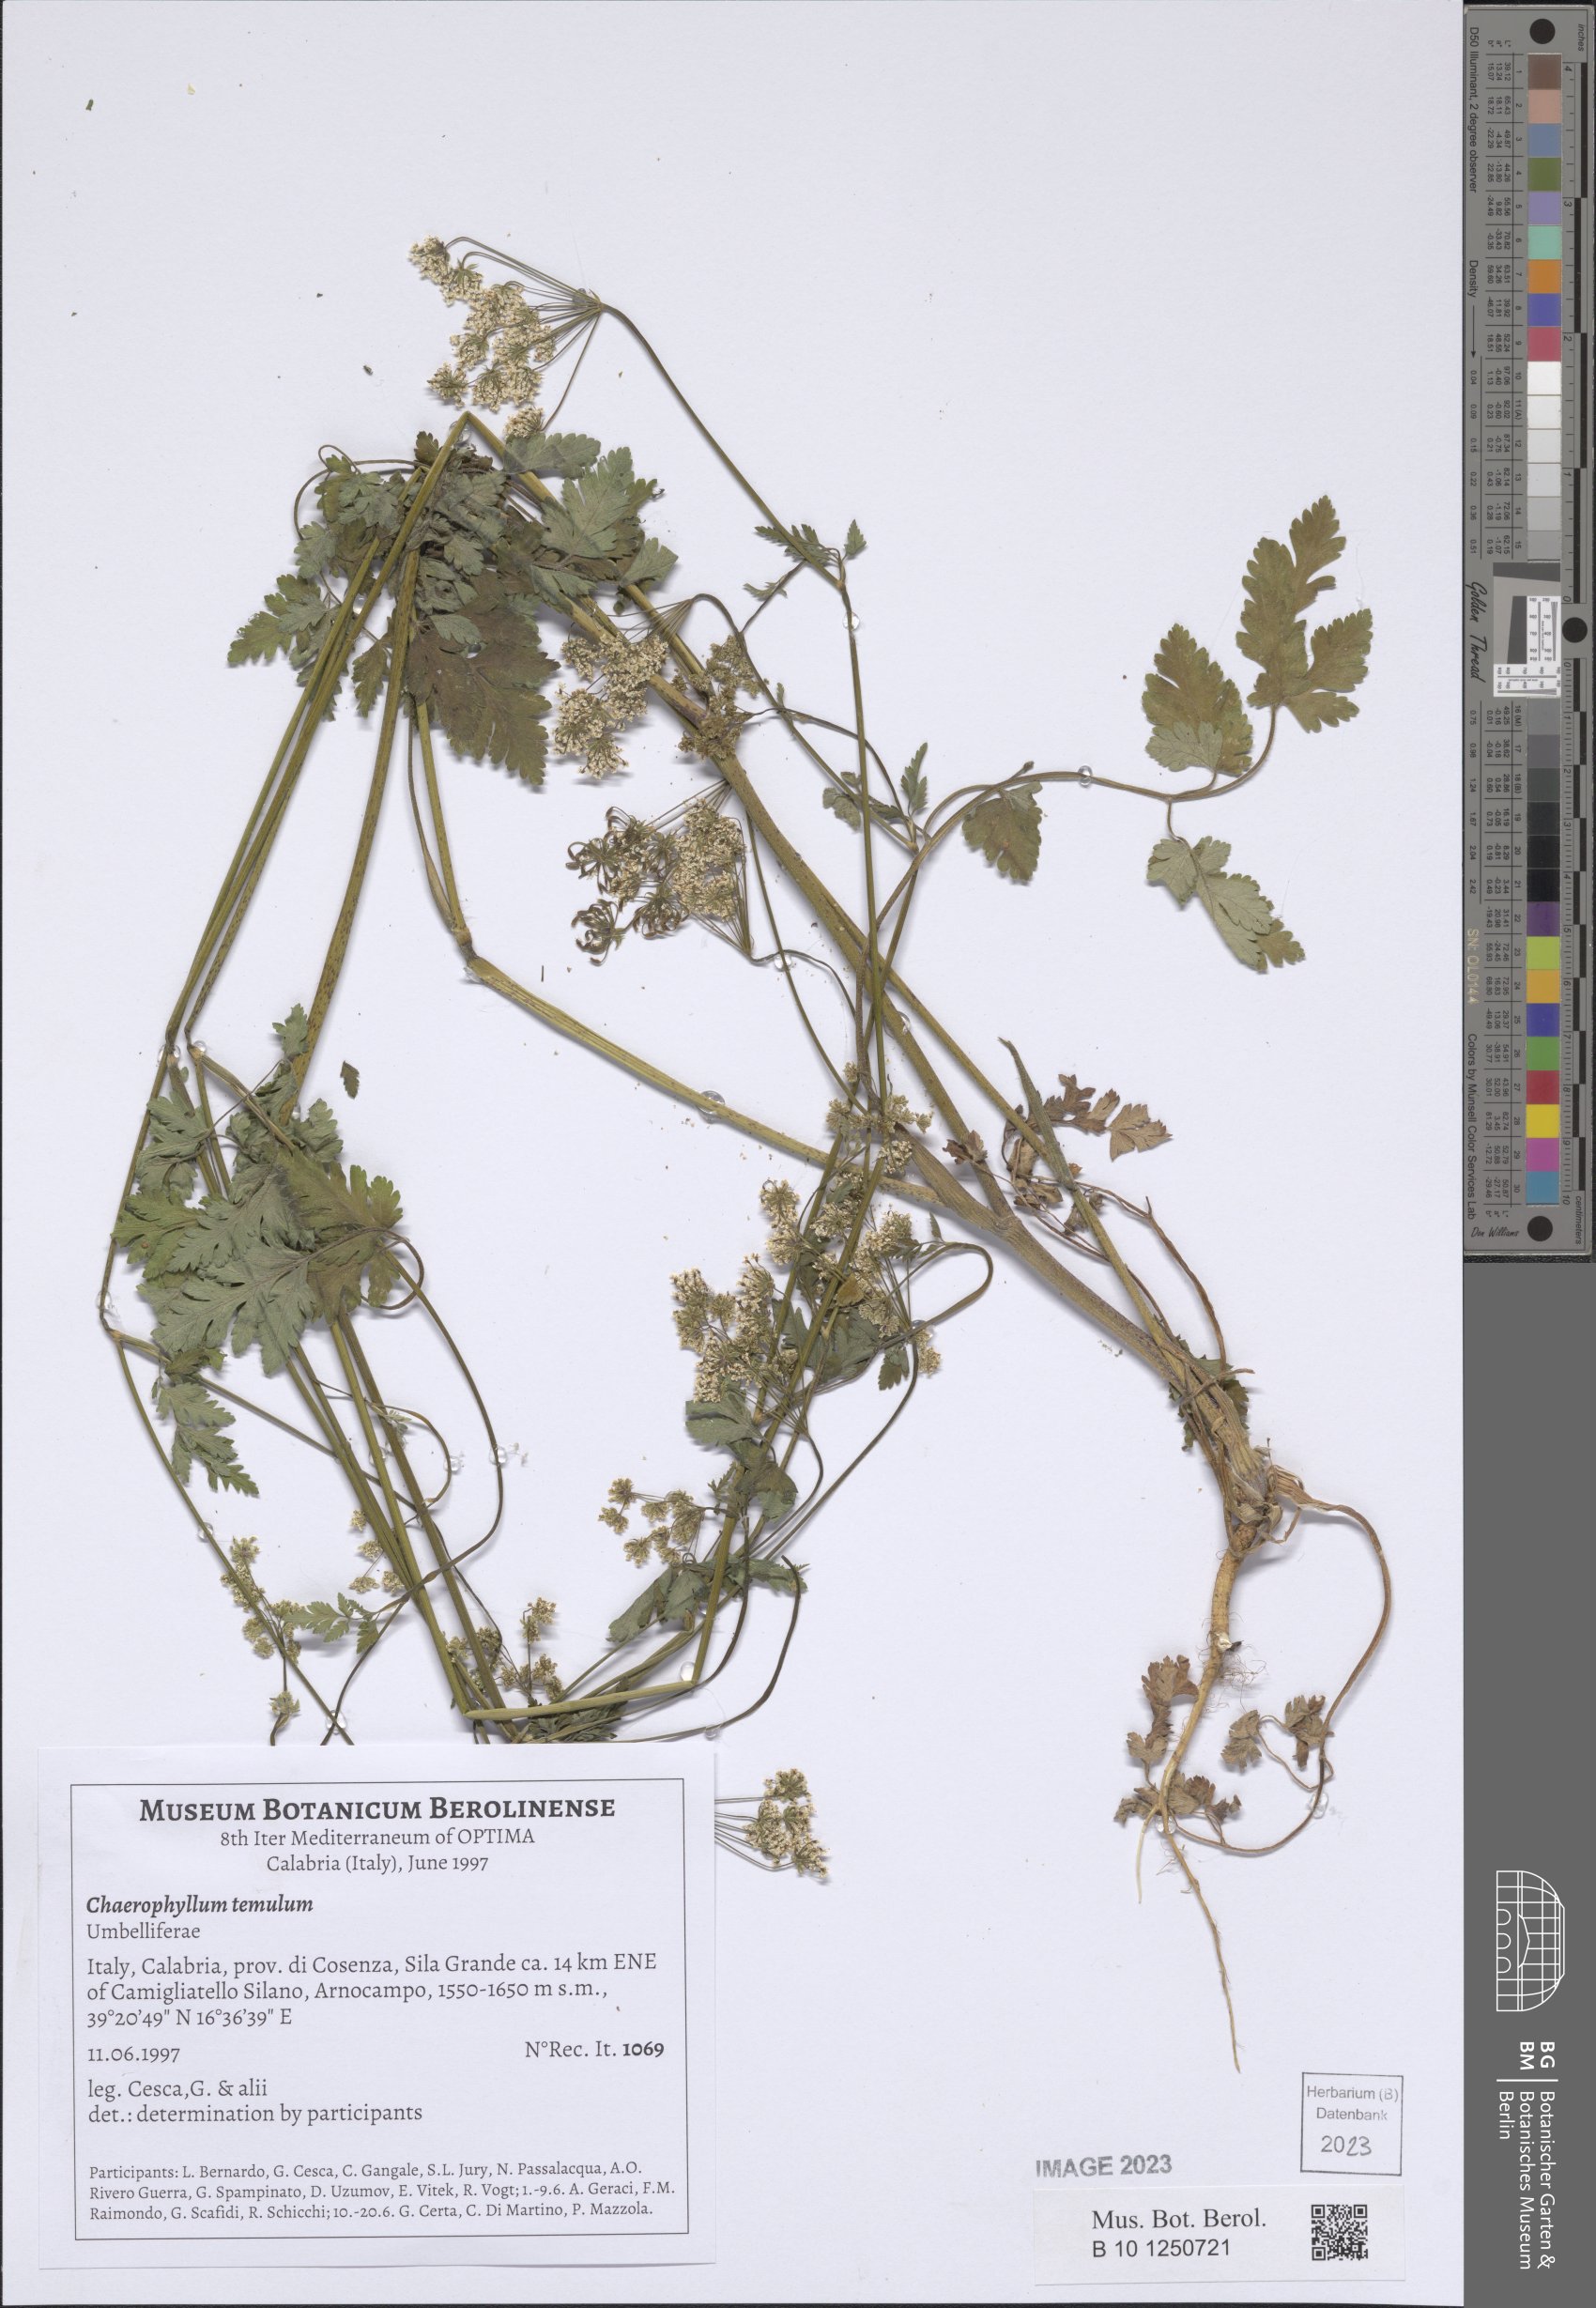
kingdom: Plantae
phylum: Tracheophyta
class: Magnoliopsida
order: Apiales
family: Apiaceae
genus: Chaerophyllum
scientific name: Chaerophyllum temulum
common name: Rough chervil
